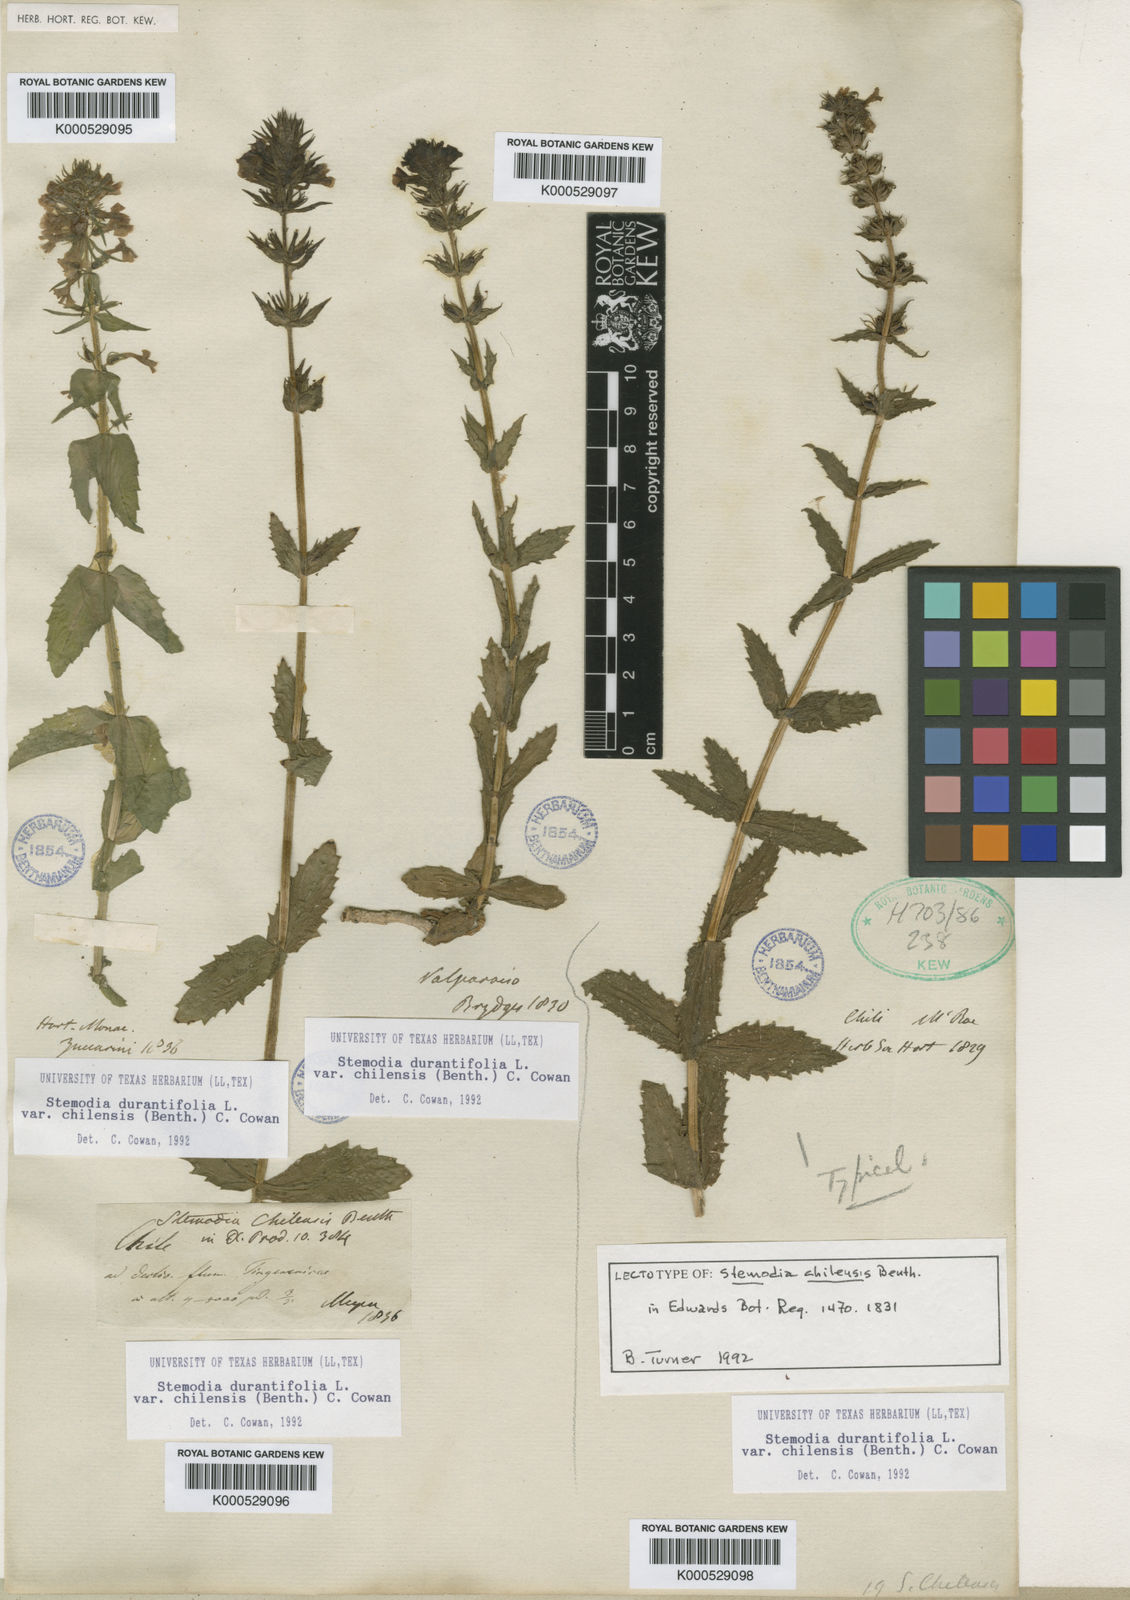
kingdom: Plantae
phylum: Tracheophyta
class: Magnoliopsida
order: Lamiales
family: Plantaginaceae
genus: Stemodia
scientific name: Stemodia durantifolia
